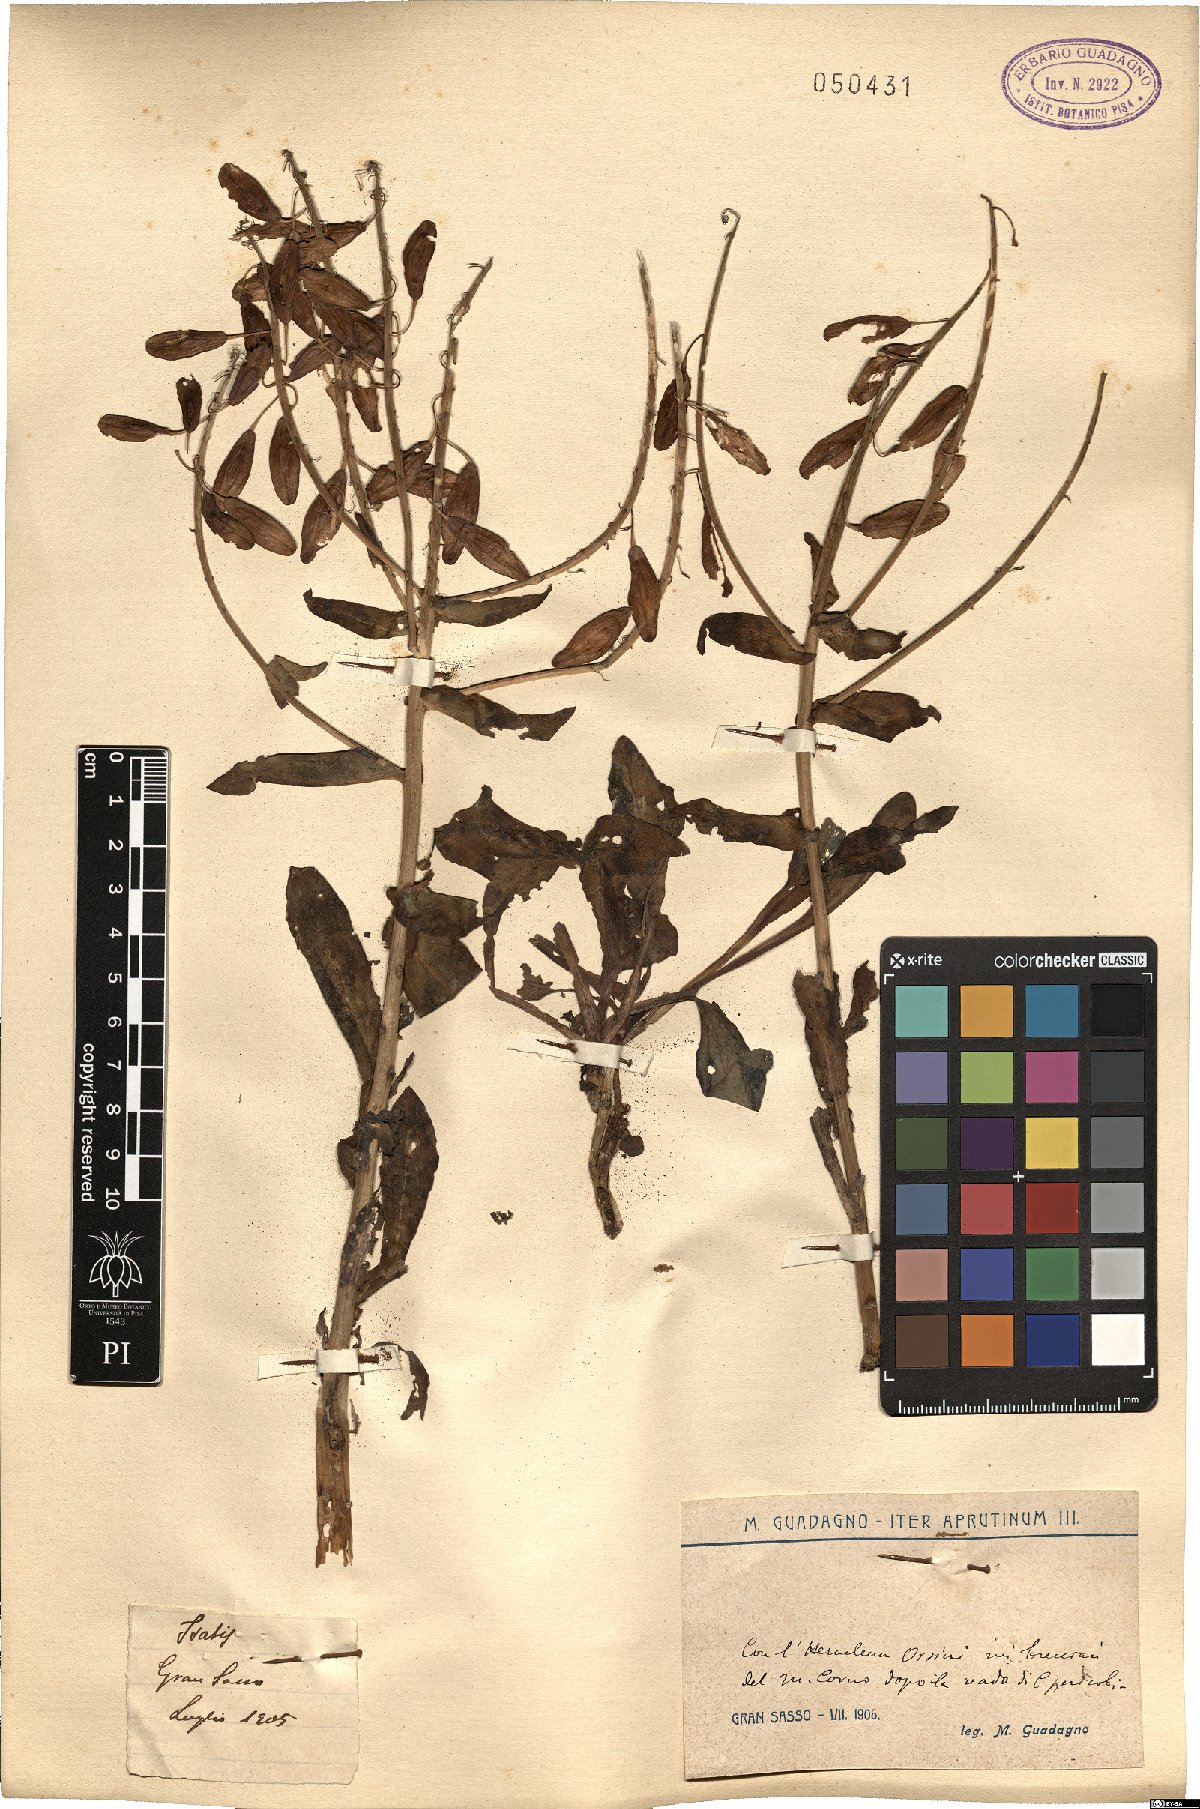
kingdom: Plantae
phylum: Tracheophyta
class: Magnoliopsida
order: Brassicales
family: Brassicaceae
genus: Isatis
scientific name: Isatis
